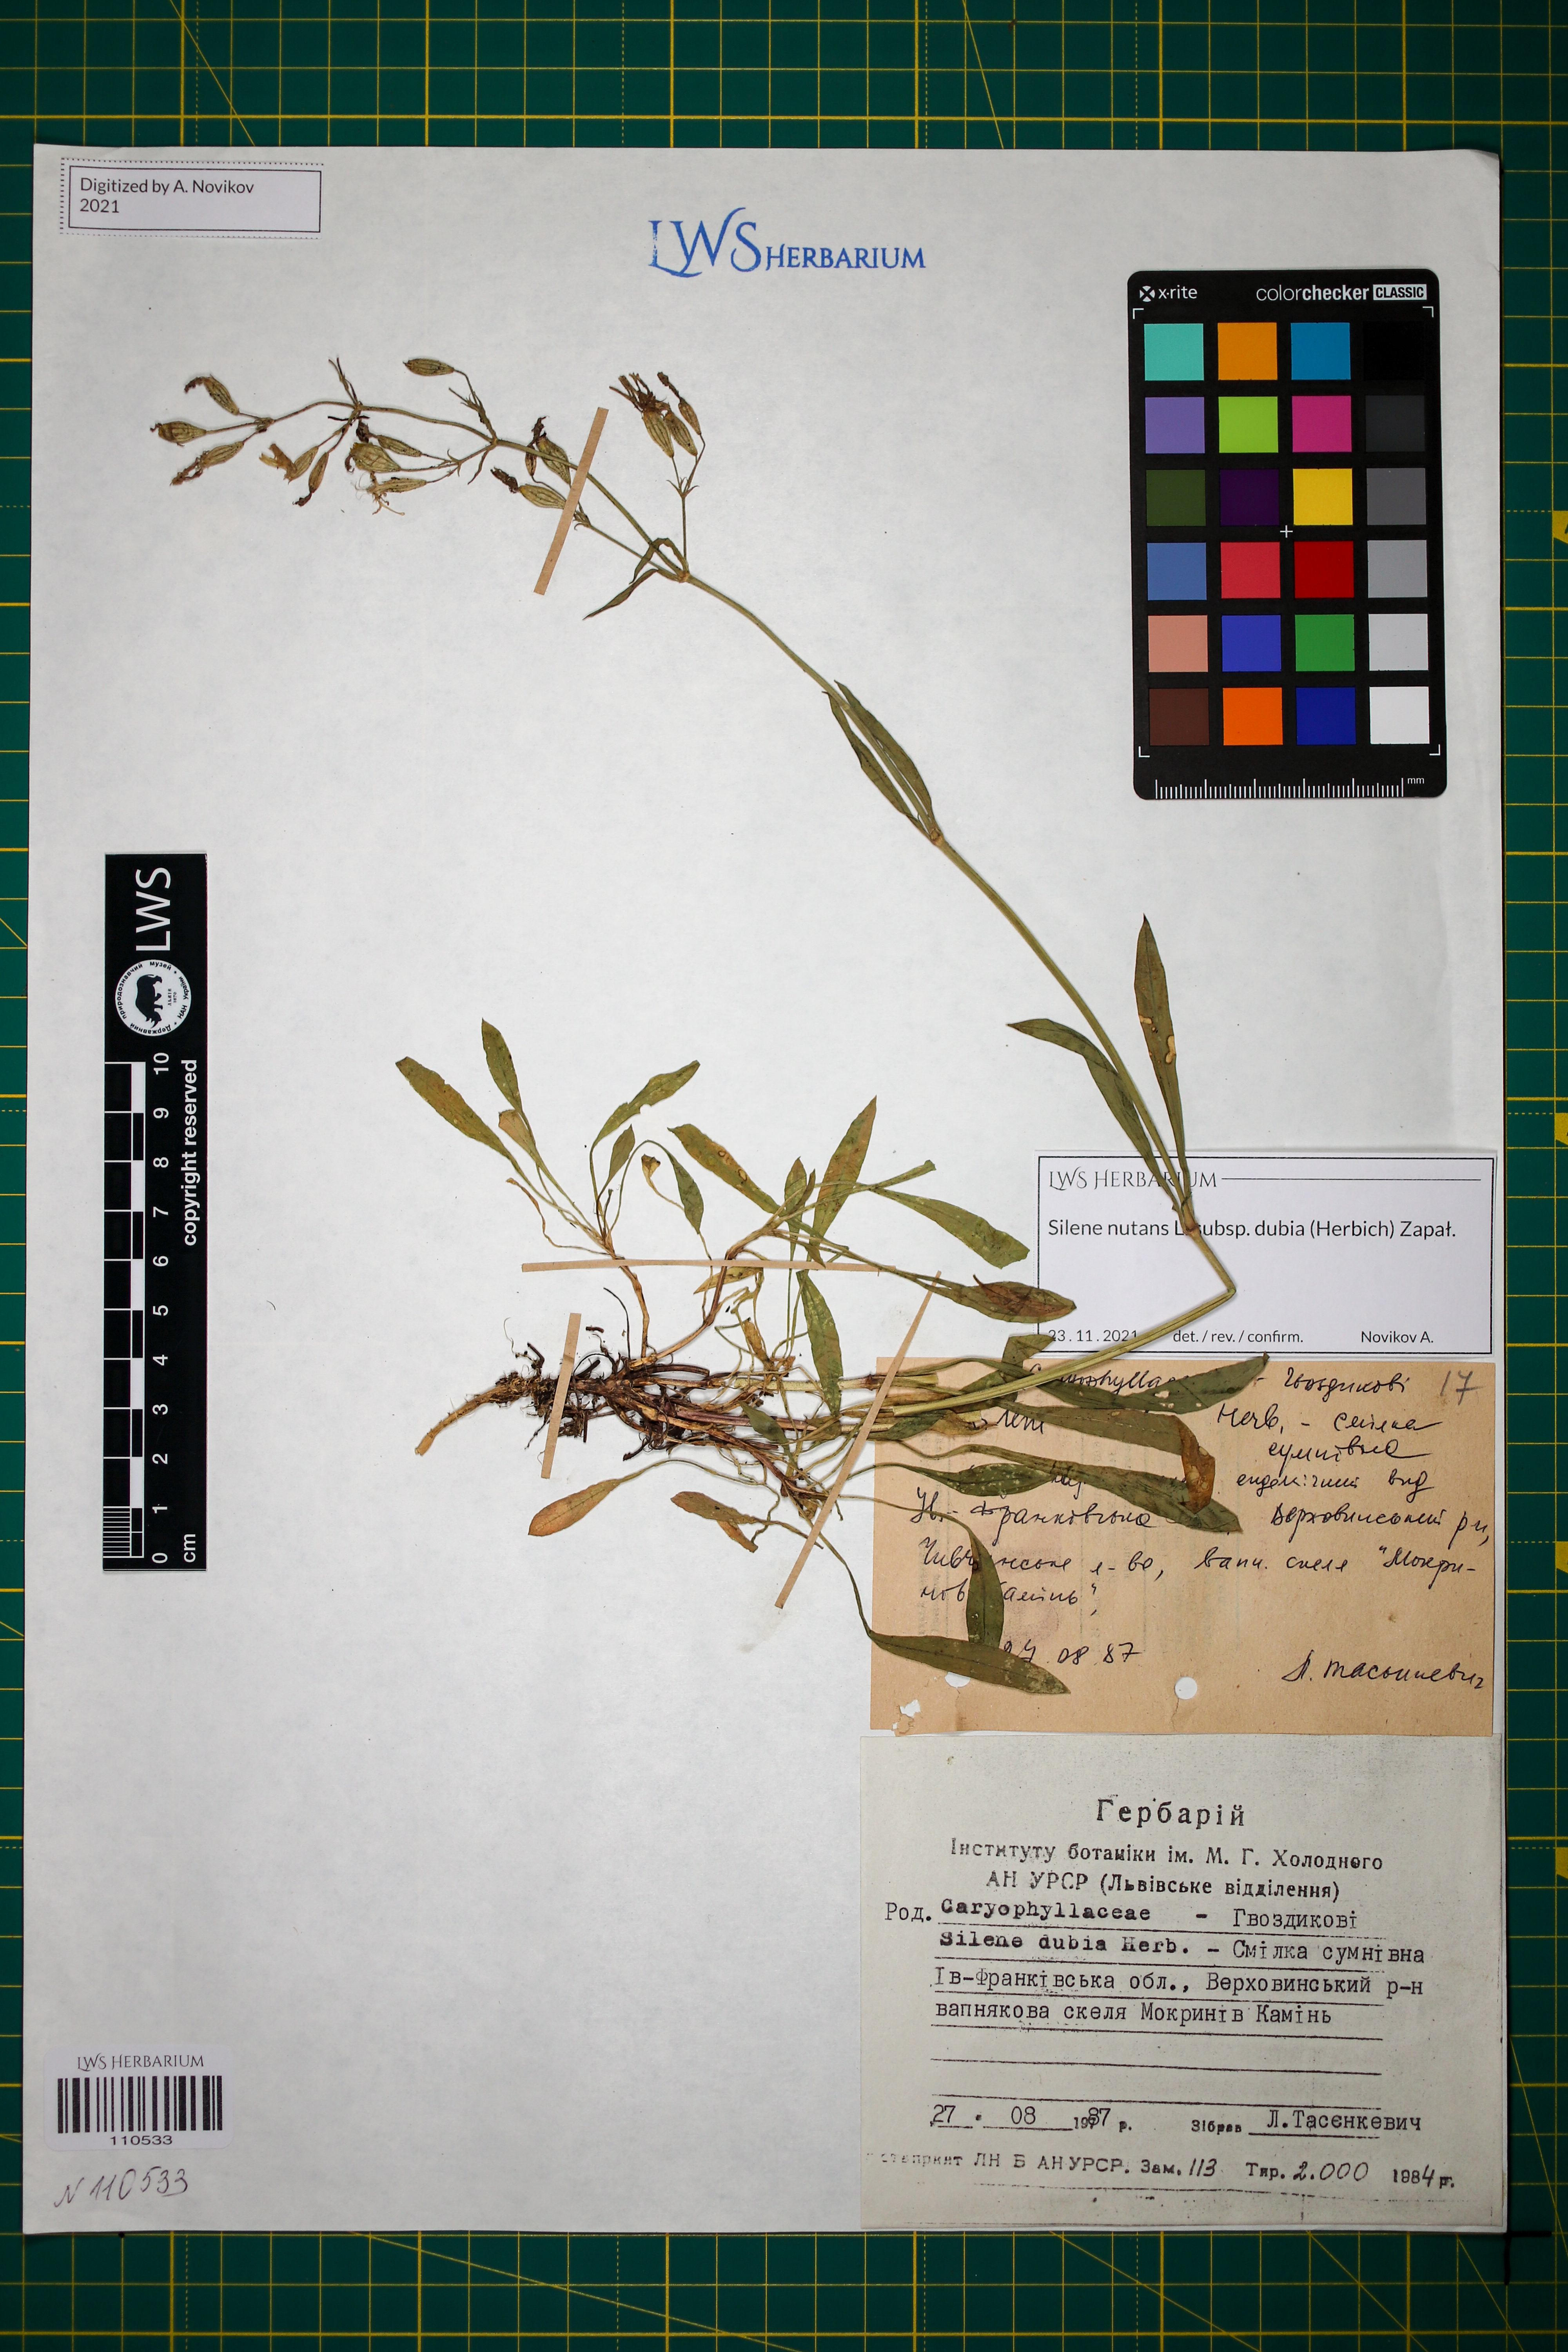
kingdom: Plantae
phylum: Tracheophyta
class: Magnoliopsida
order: Caryophyllales
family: Caryophyllaceae
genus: Silene
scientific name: Silene nutans
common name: Nottingham catchfly
